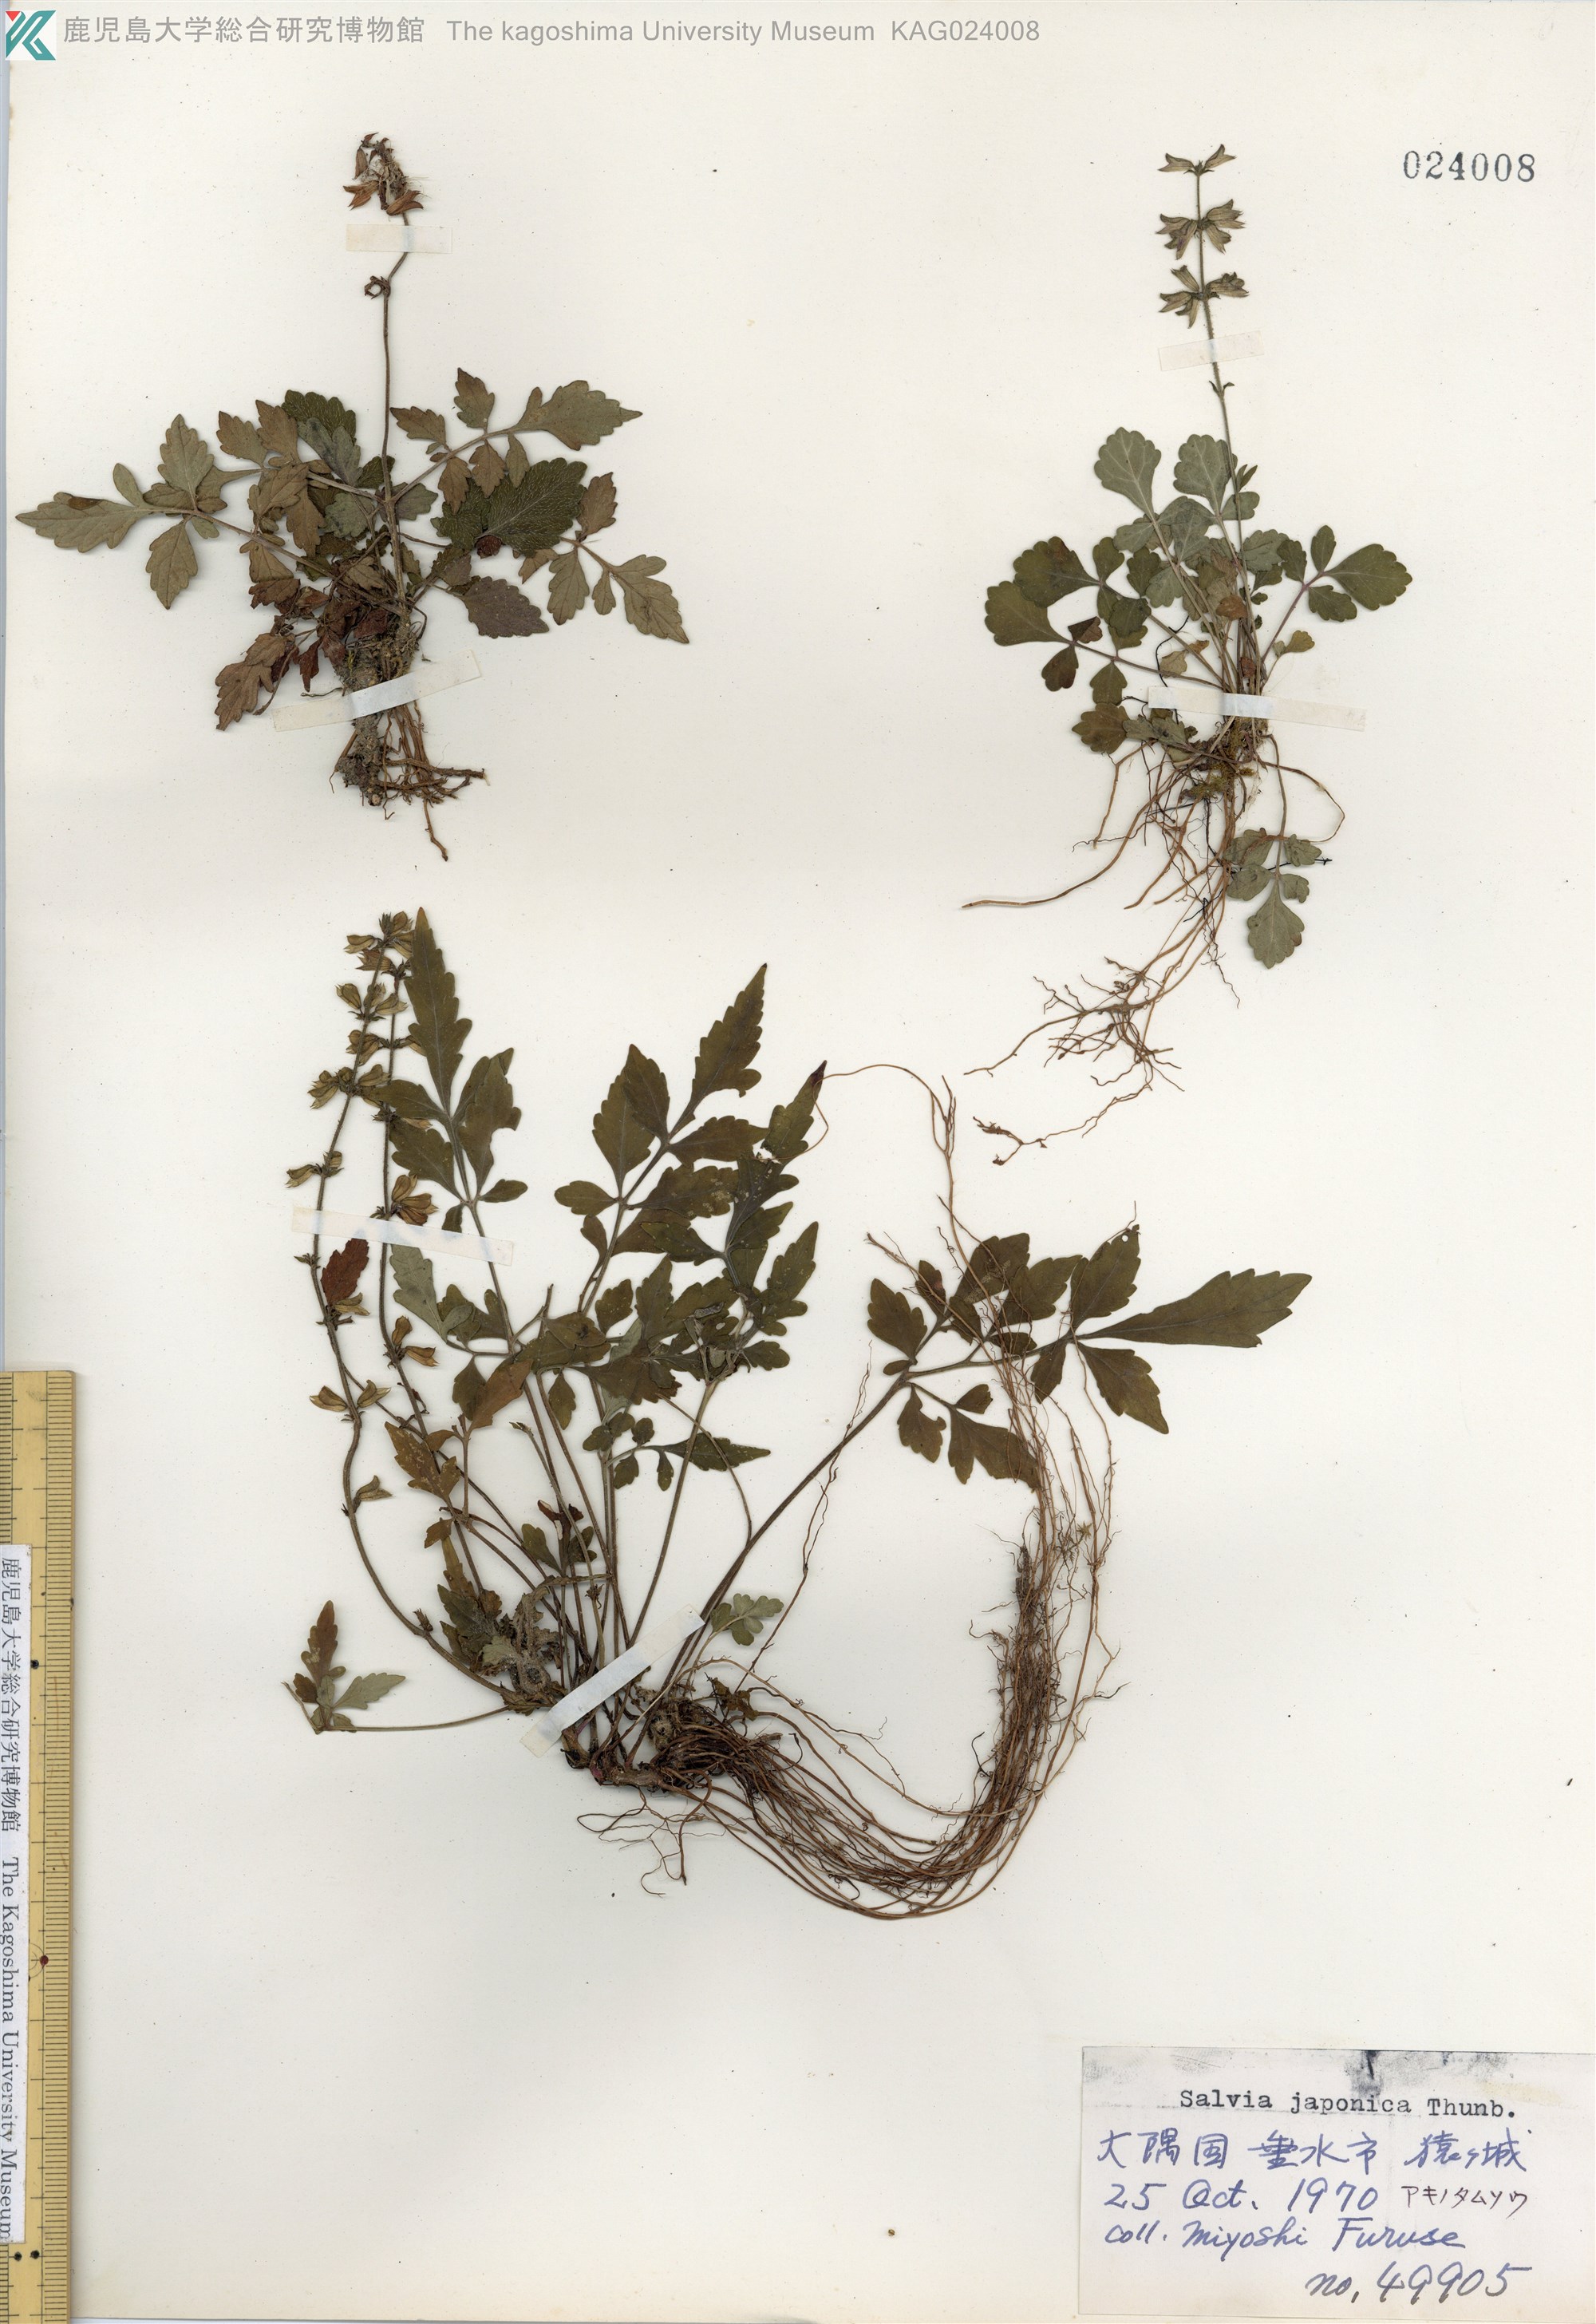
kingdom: Plantae
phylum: Tracheophyta
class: Magnoliopsida
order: Lamiales
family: Lamiaceae
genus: Salvia
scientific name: Salvia japonica
